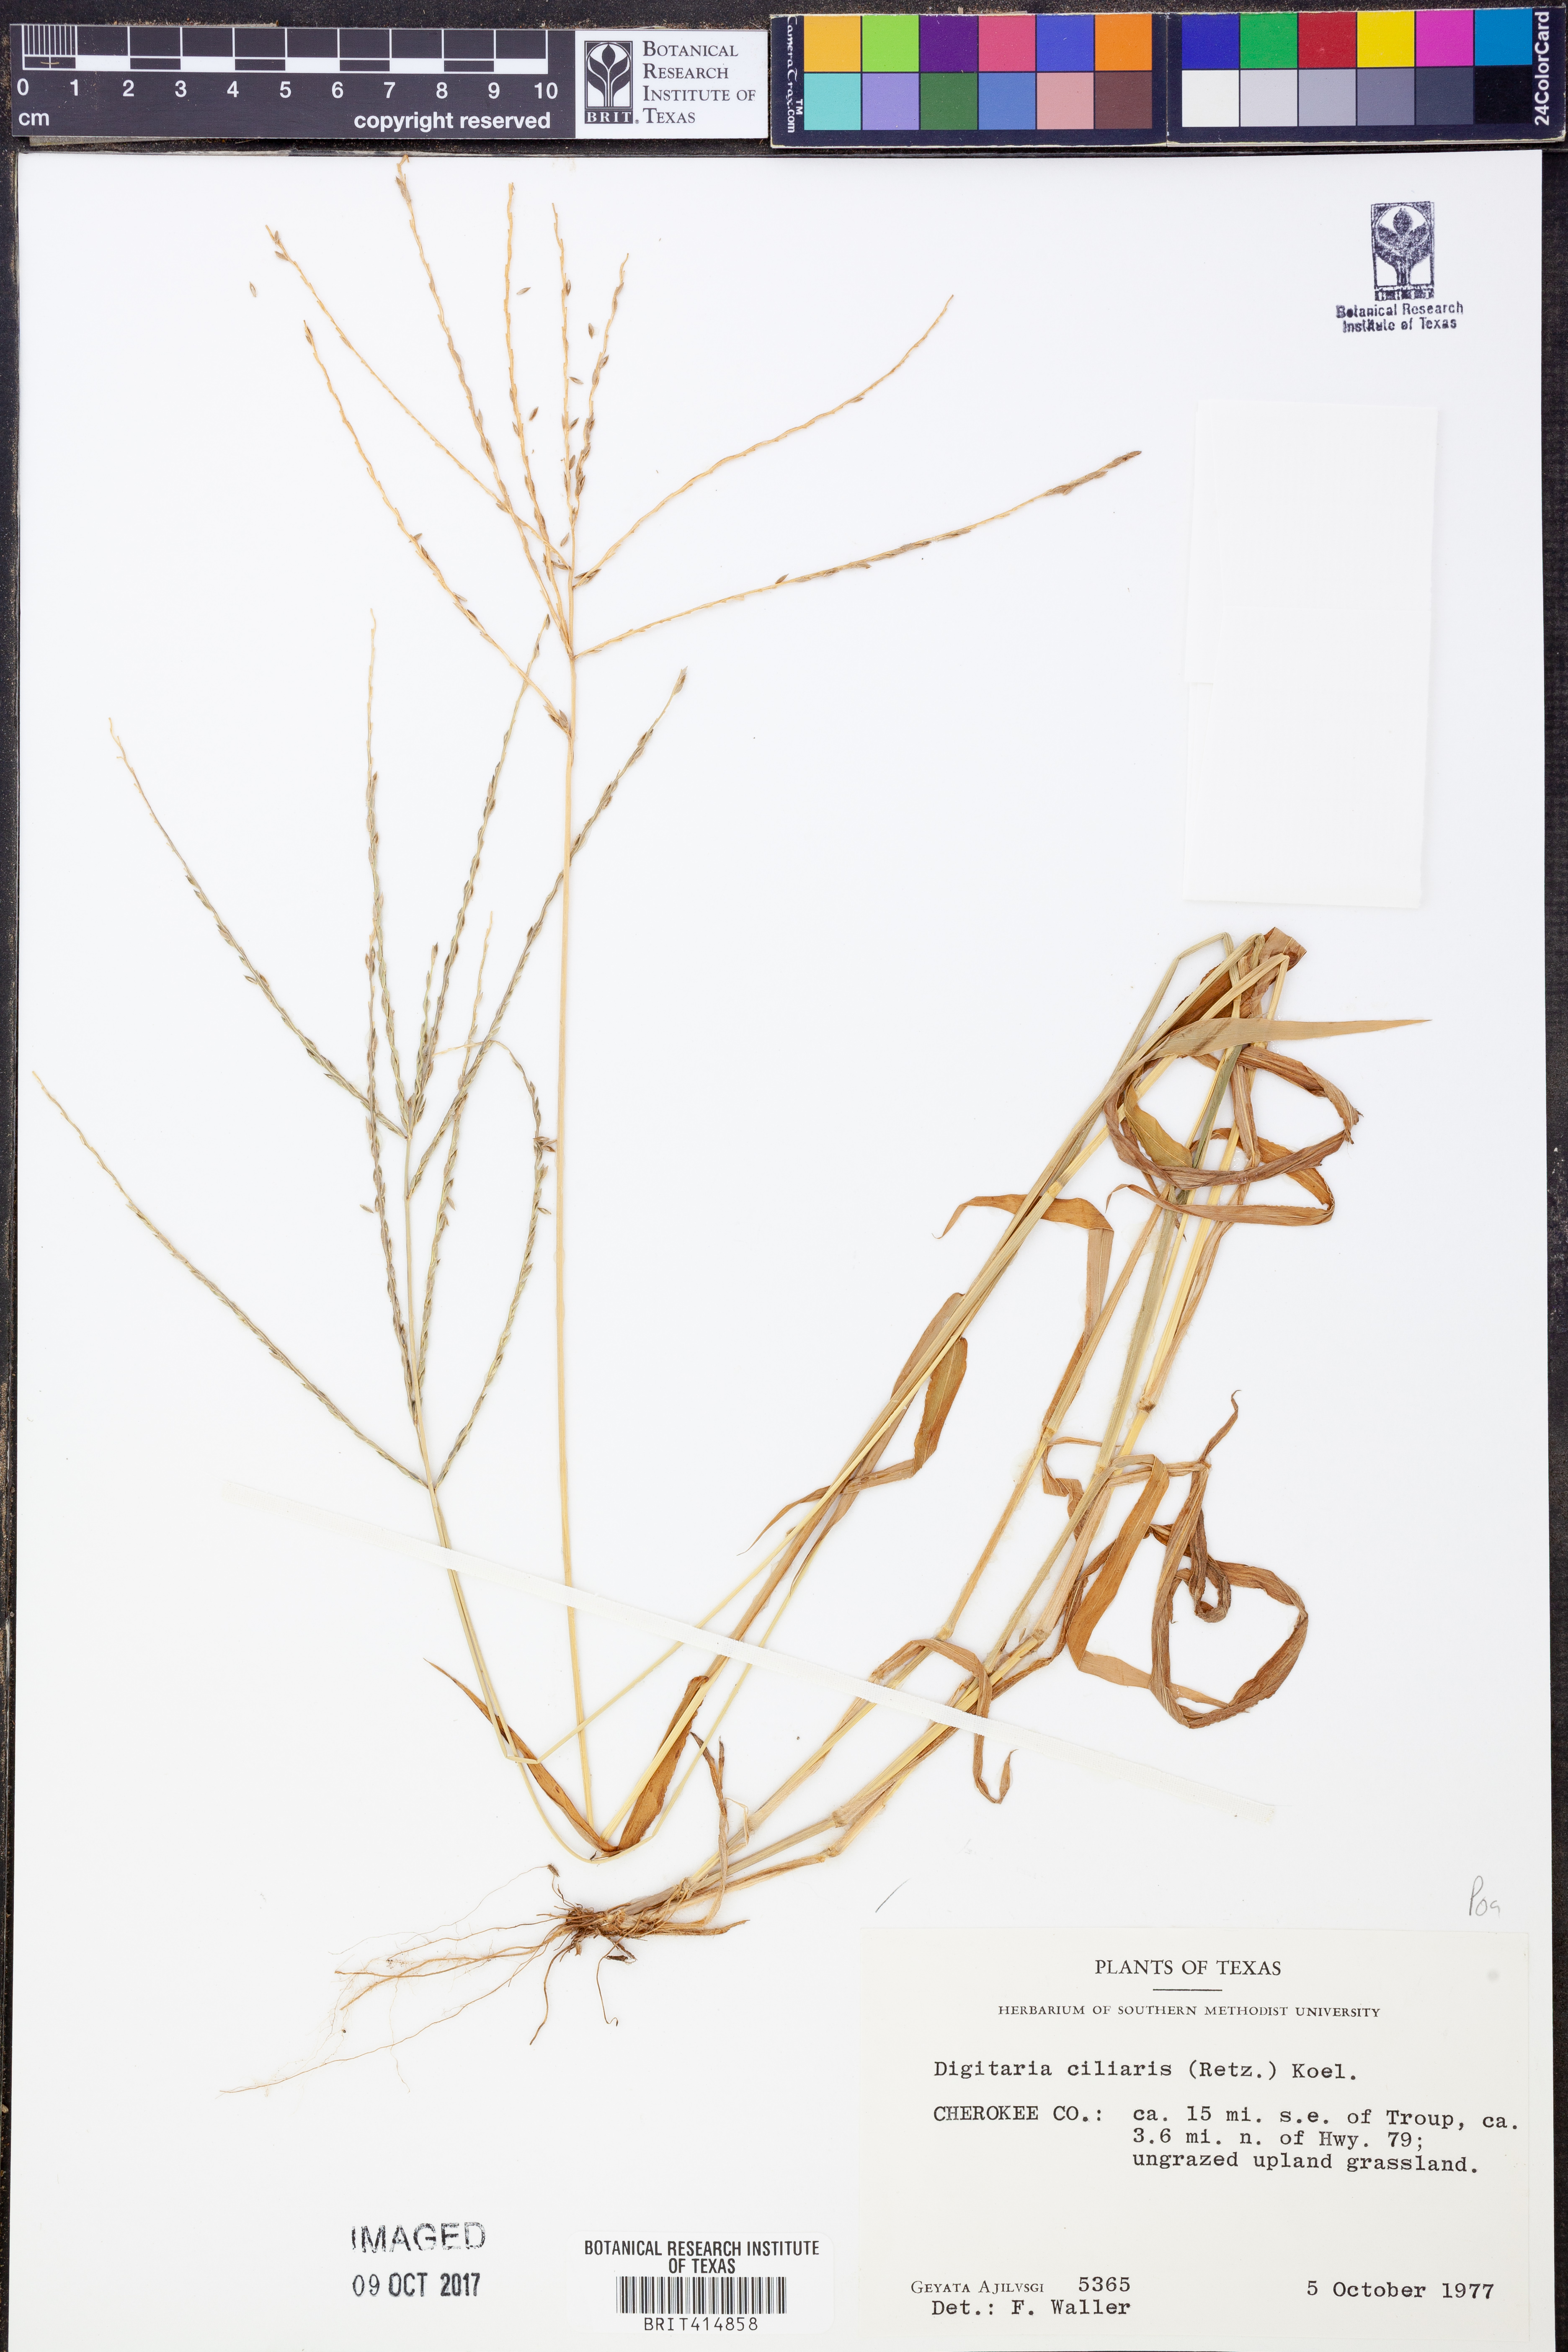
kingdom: Plantae
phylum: Tracheophyta
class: Liliopsida
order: Poales
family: Poaceae
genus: Digitaria
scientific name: Digitaria ciliaris
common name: Tropical finger-grass
